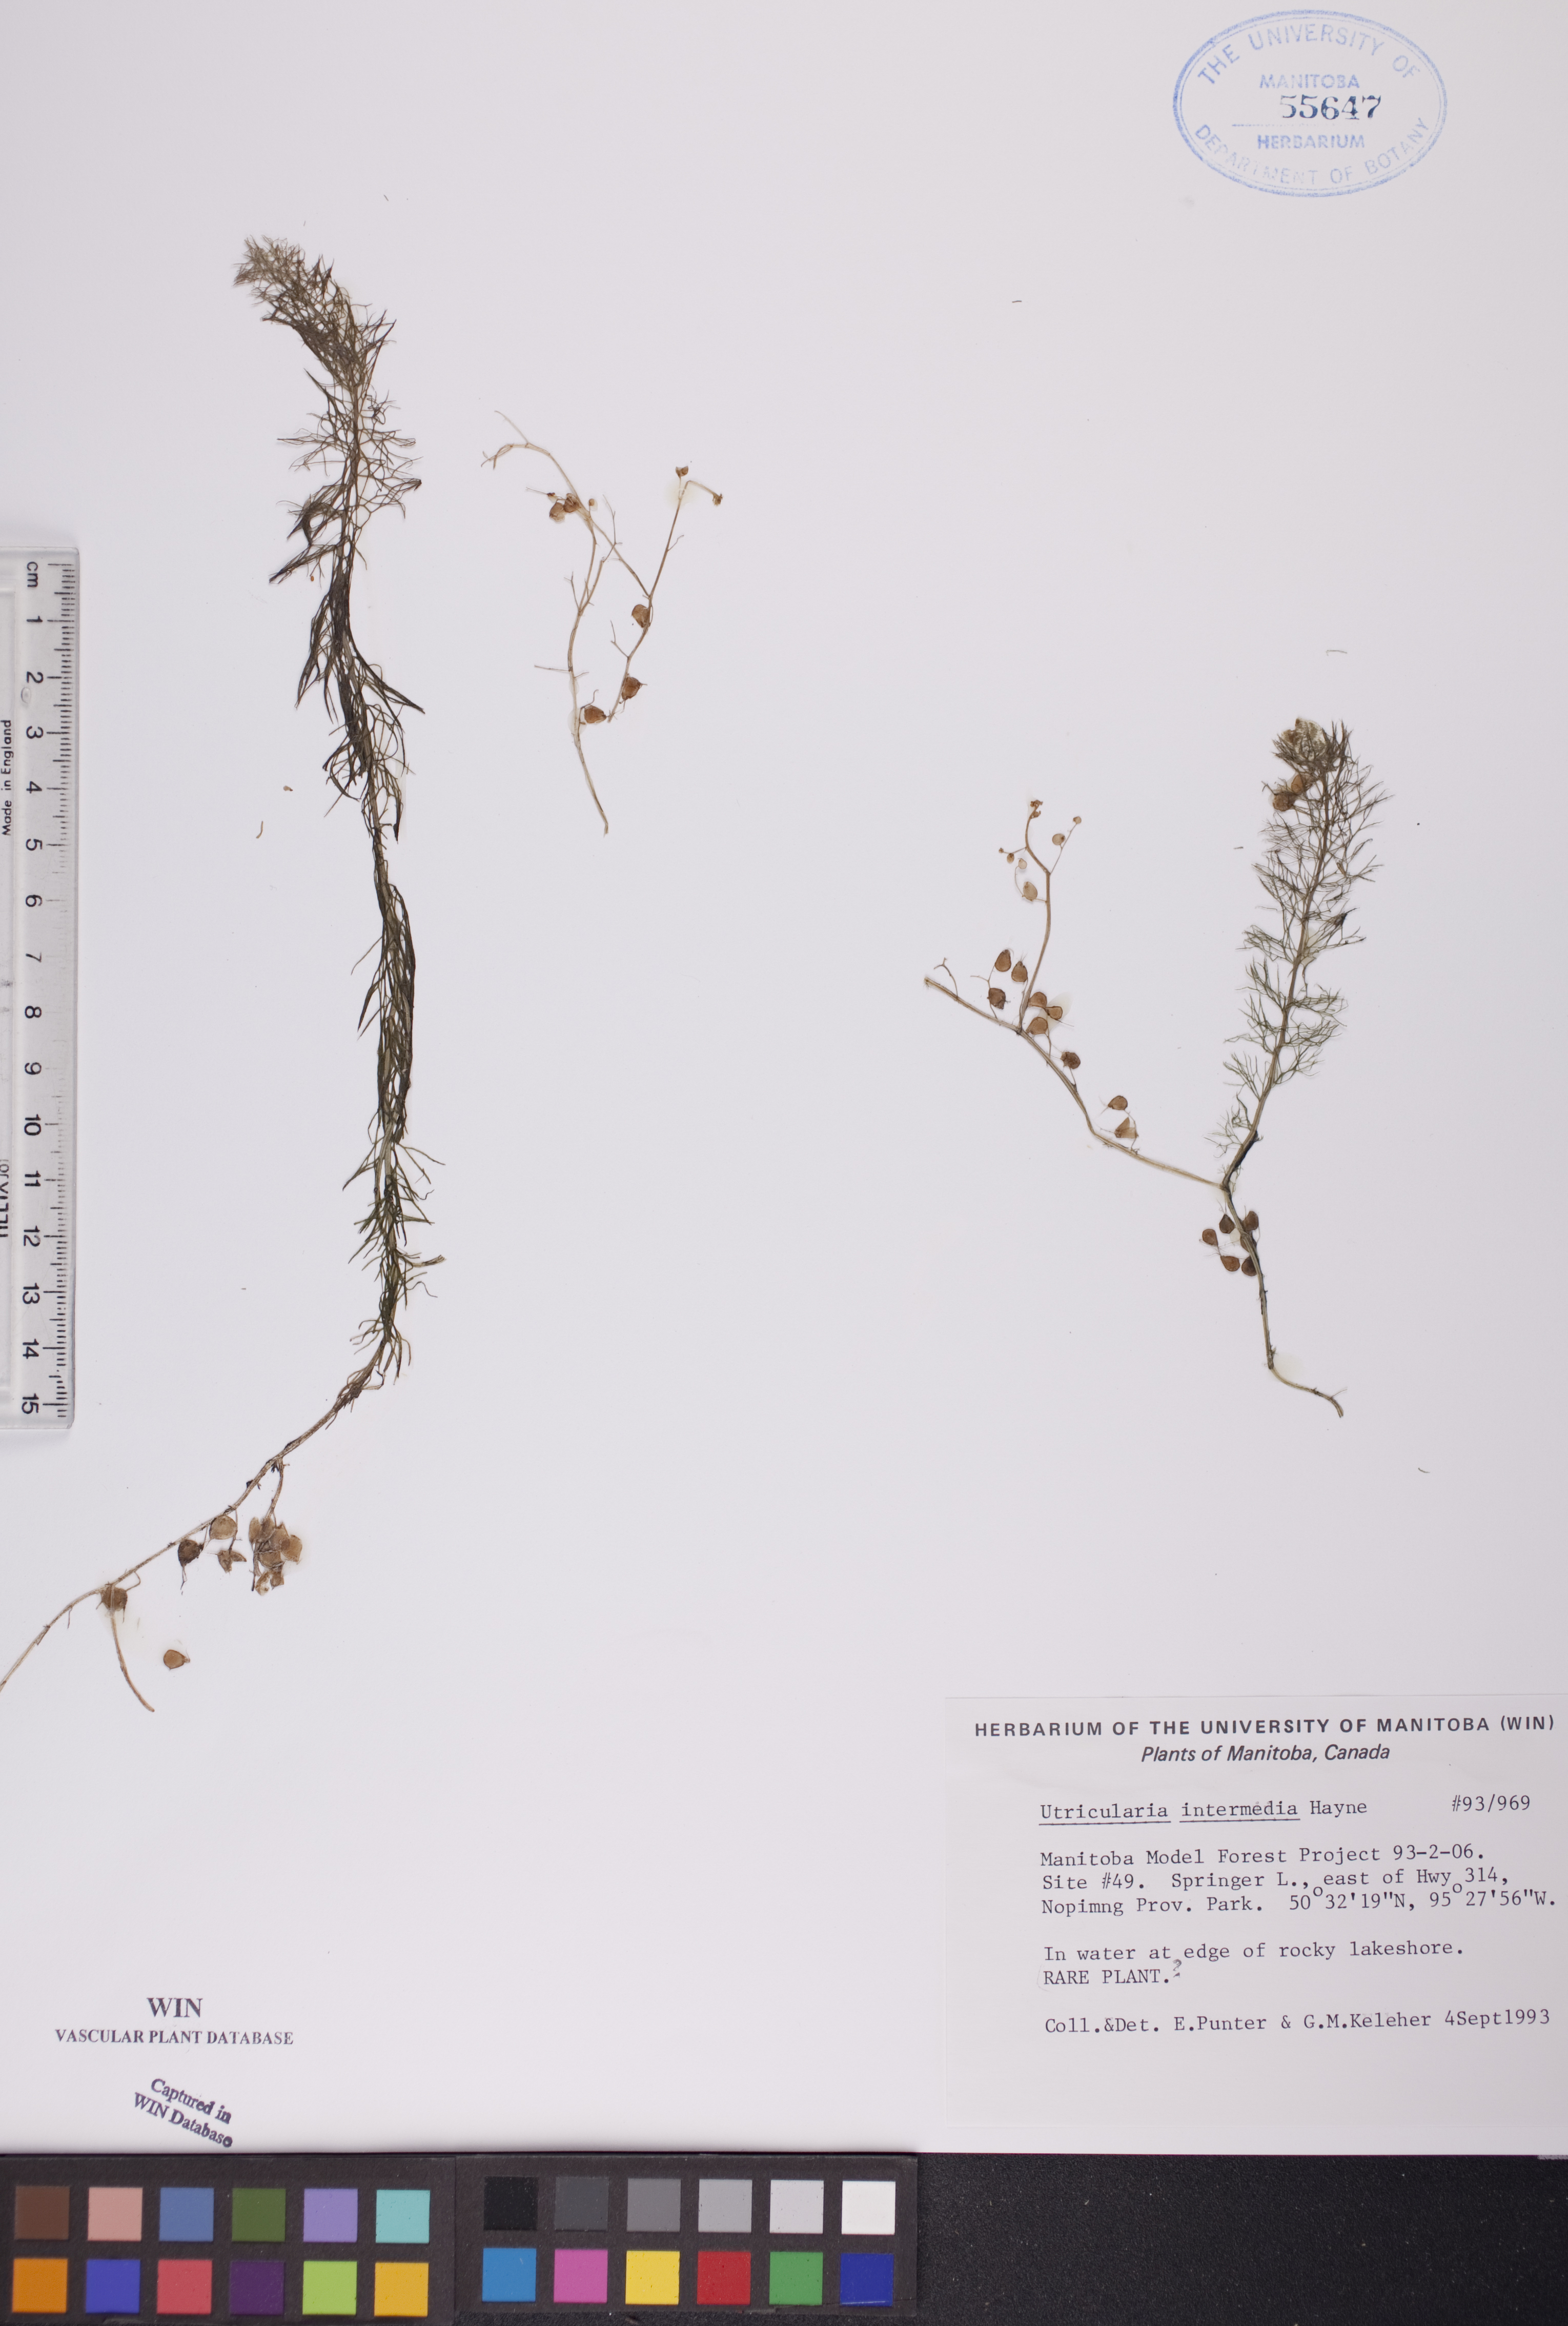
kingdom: Plantae
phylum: Tracheophyta
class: Magnoliopsida
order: Lamiales
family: Lentibulariaceae
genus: Utricularia
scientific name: Utricularia intermedia
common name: Intermediate bladderwort
